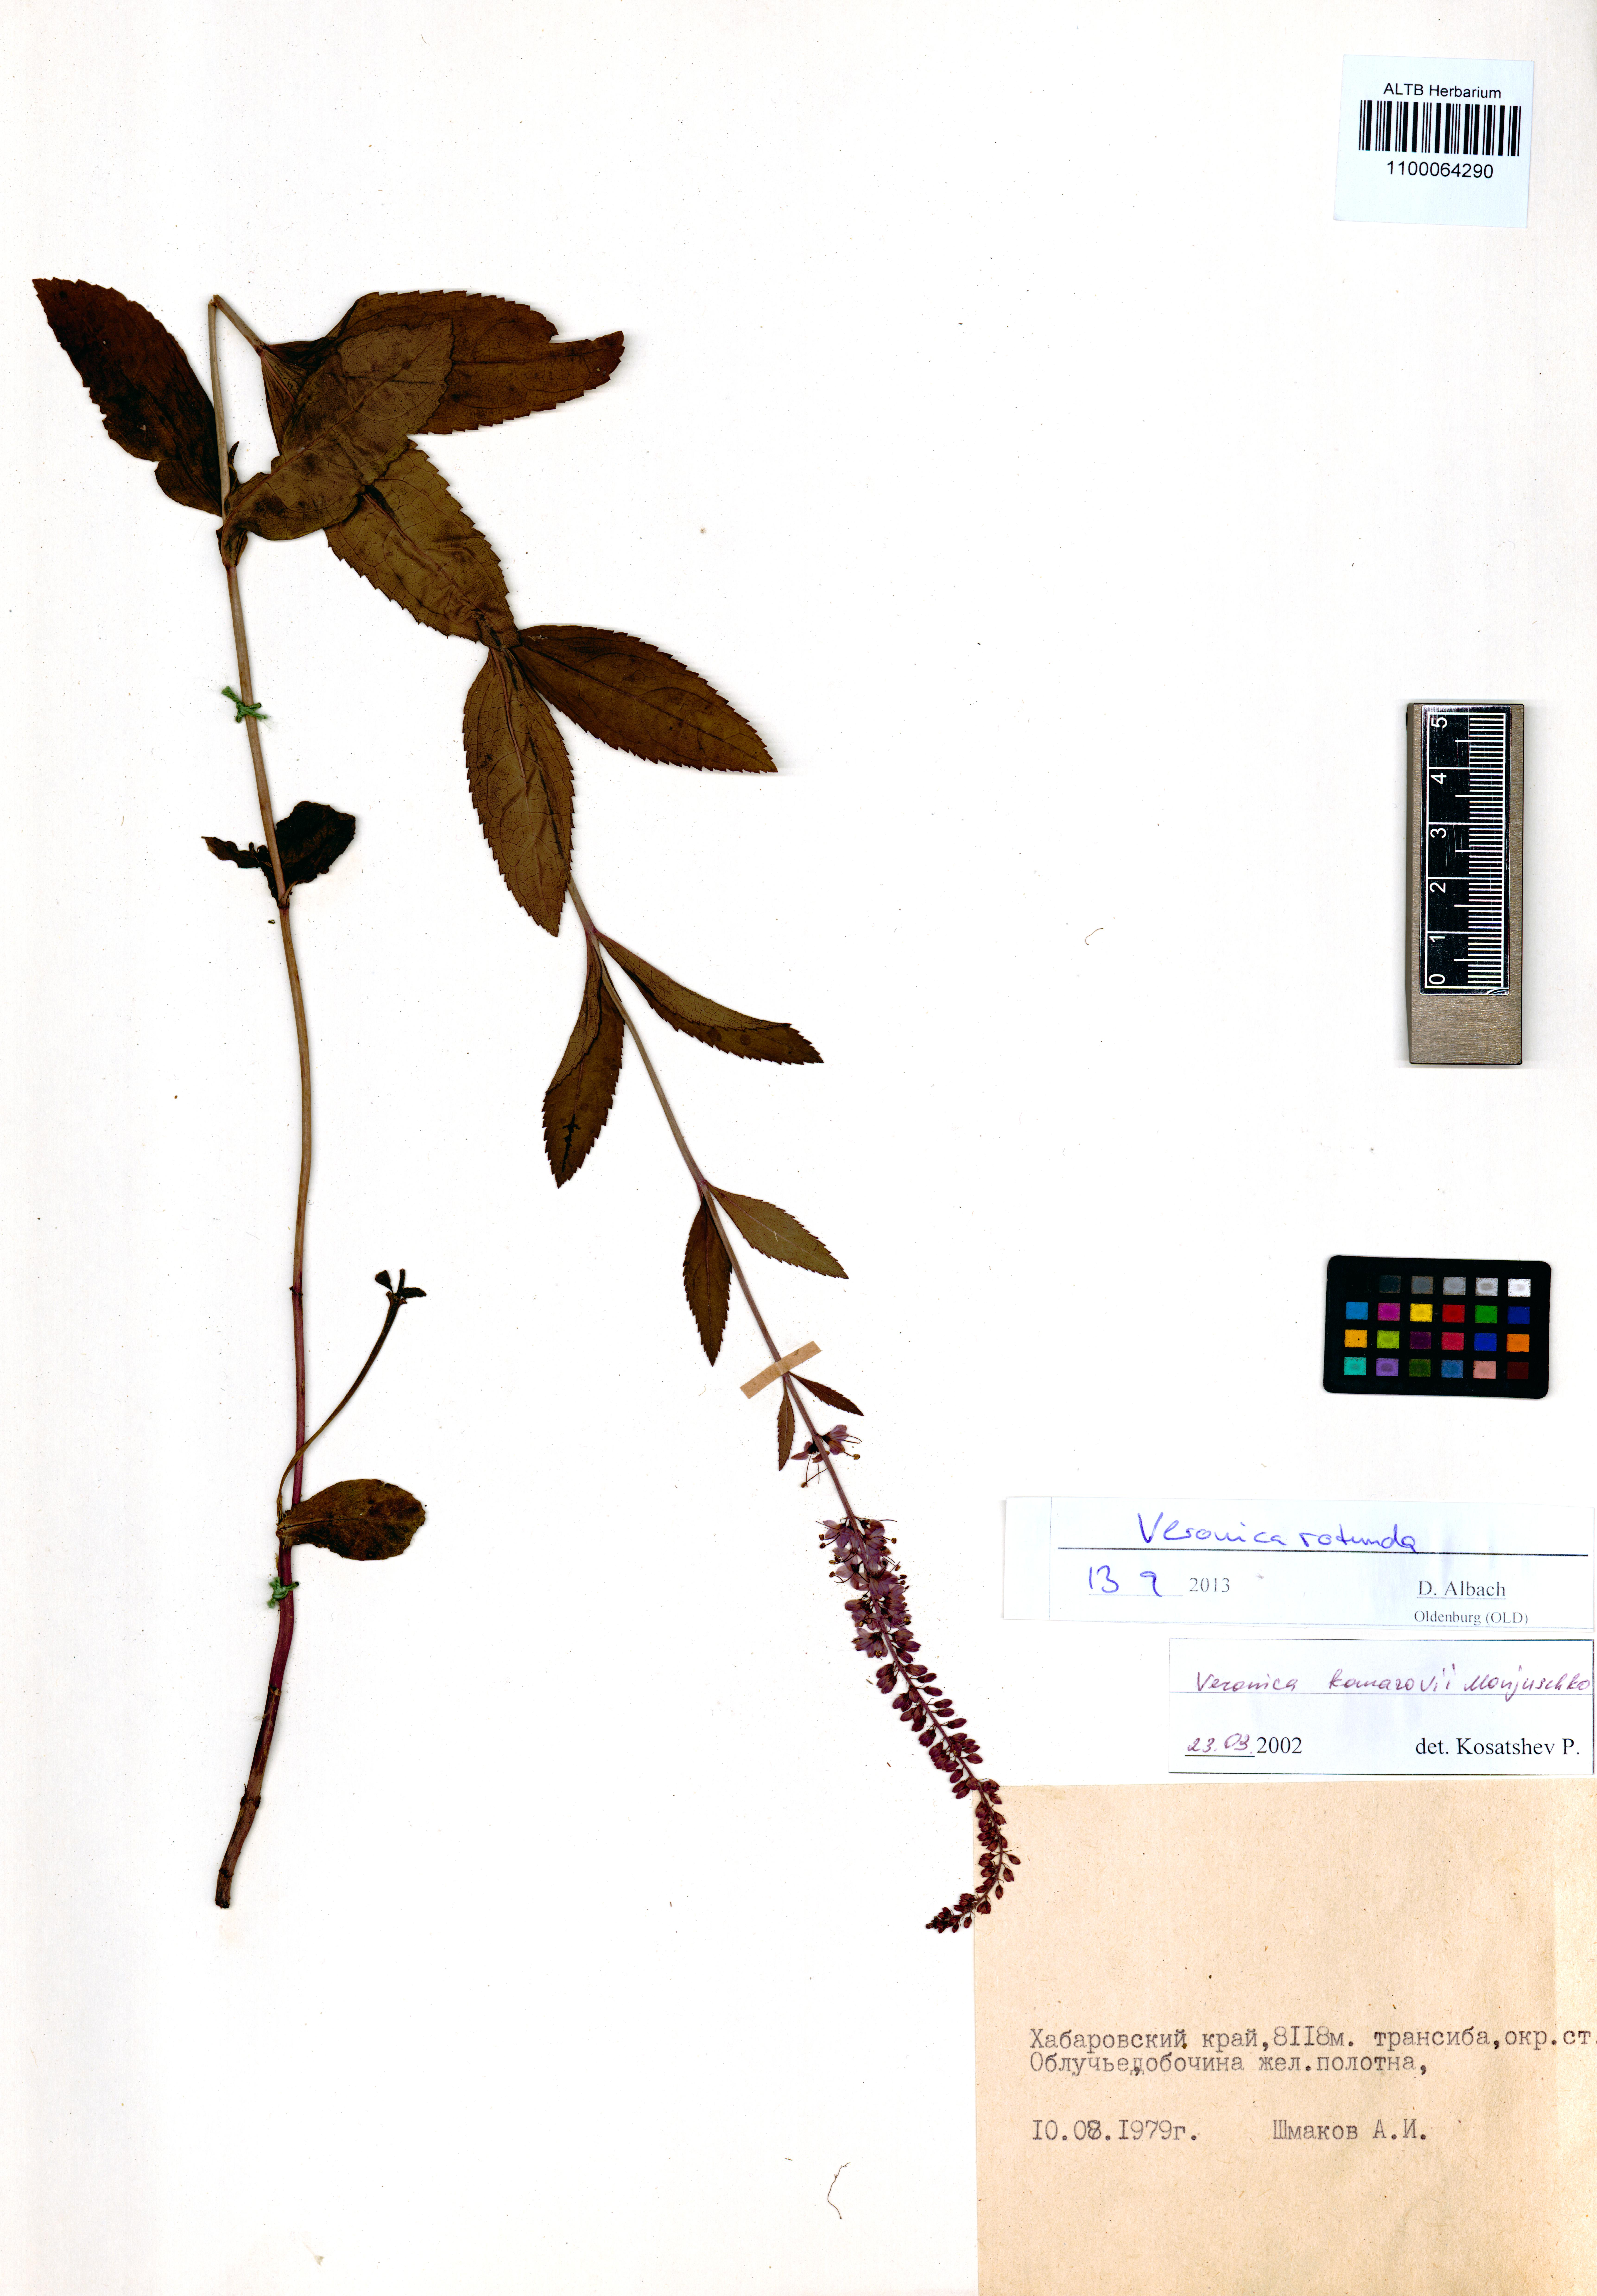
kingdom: Plantae
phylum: Tracheophyta
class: Magnoliopsida
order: Lamiales
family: Plantaginaceae
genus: Veronica
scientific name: Veronica rotunda
